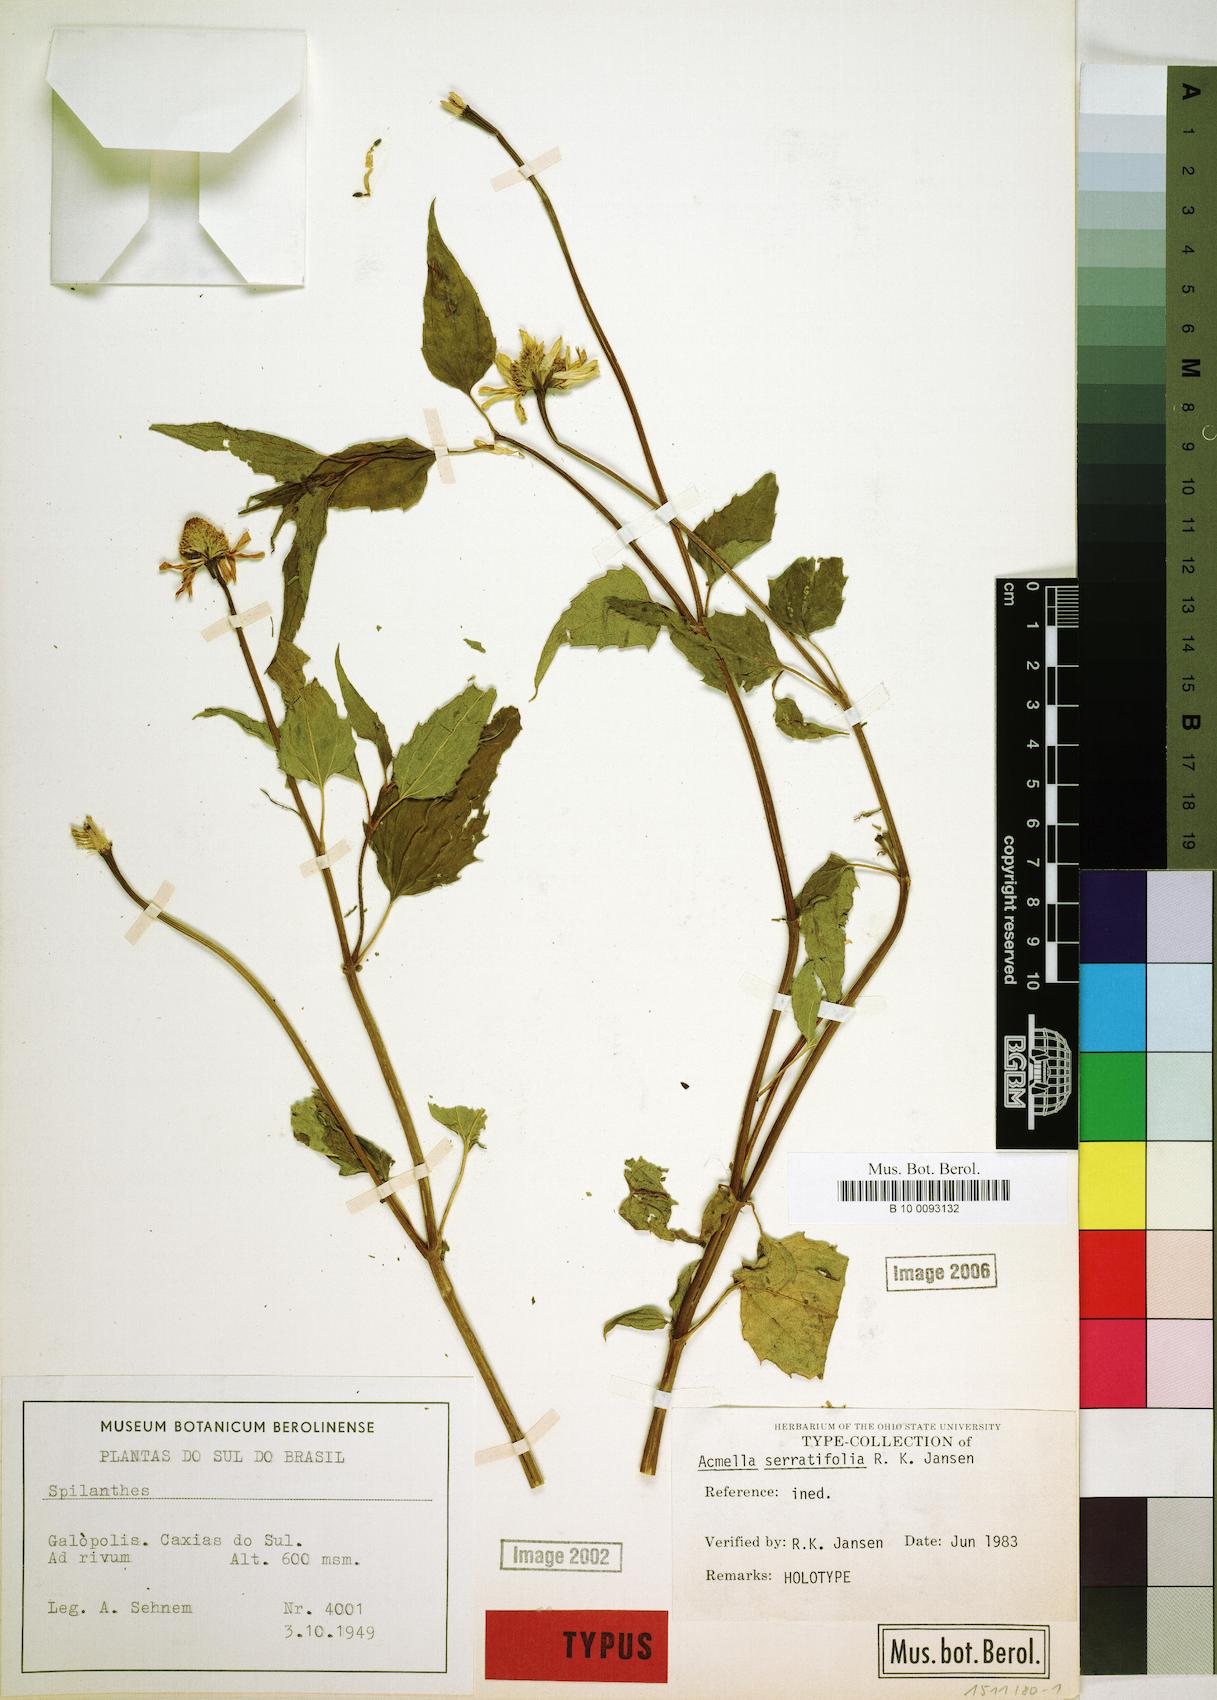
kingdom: Plantae
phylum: Tracheophyta
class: Magnoliopsida
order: Asterales
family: Asteraceae
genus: Acmella
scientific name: Acmella serratifolia
